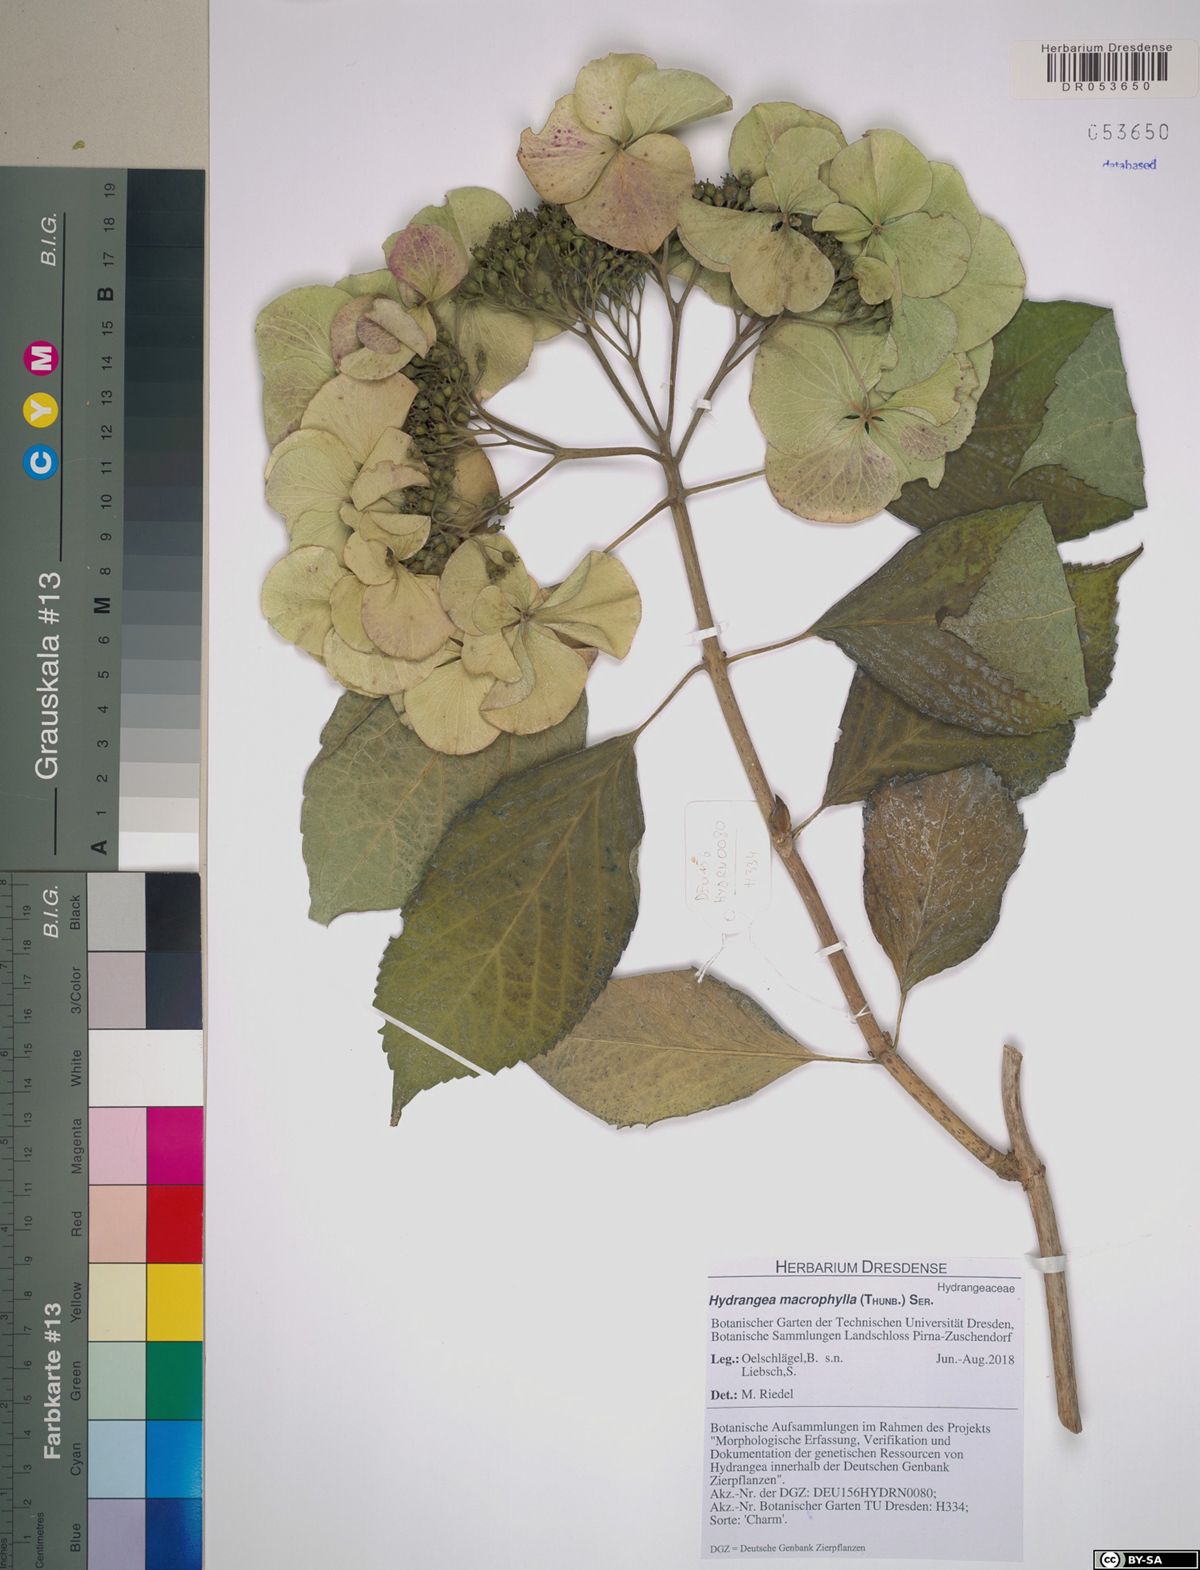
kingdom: Plantae
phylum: Tracheophyta
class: Magnoliopsida
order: Cornales
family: Hydrangeaceae
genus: Hydrangea
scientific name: Hydrangea macrophylla
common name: Hydrangea
